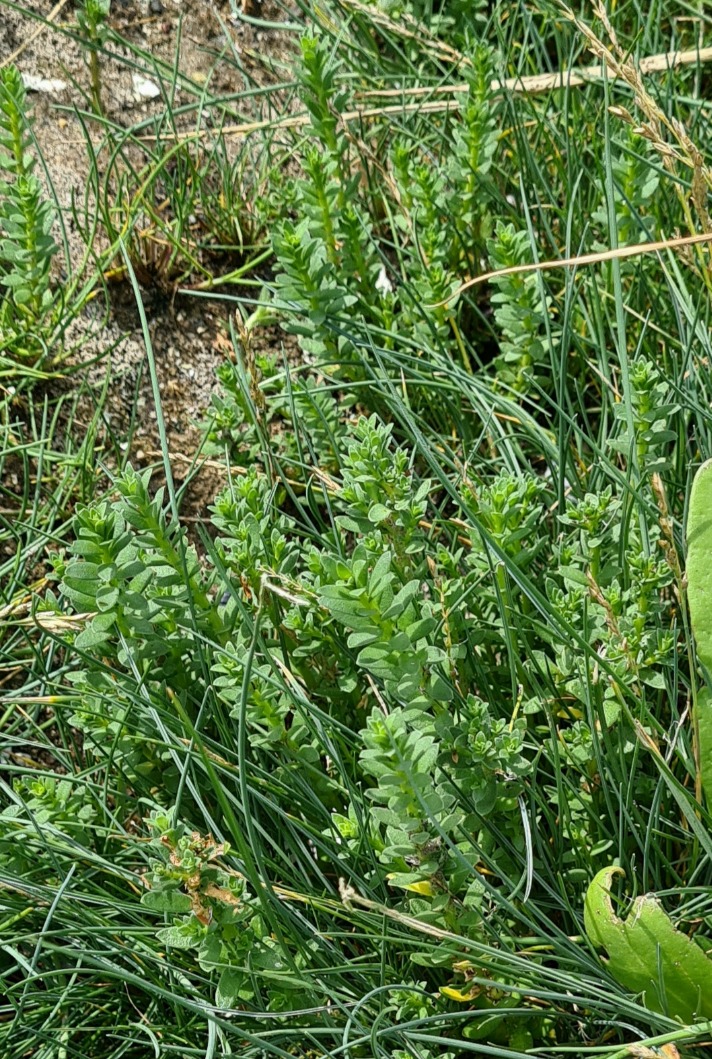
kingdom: Plantae
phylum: Tracheophyta
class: Magnoliopsida
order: Ericales
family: Primulaceae
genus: Lysimachia
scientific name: Lysimachia maritima
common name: Sandkryb
